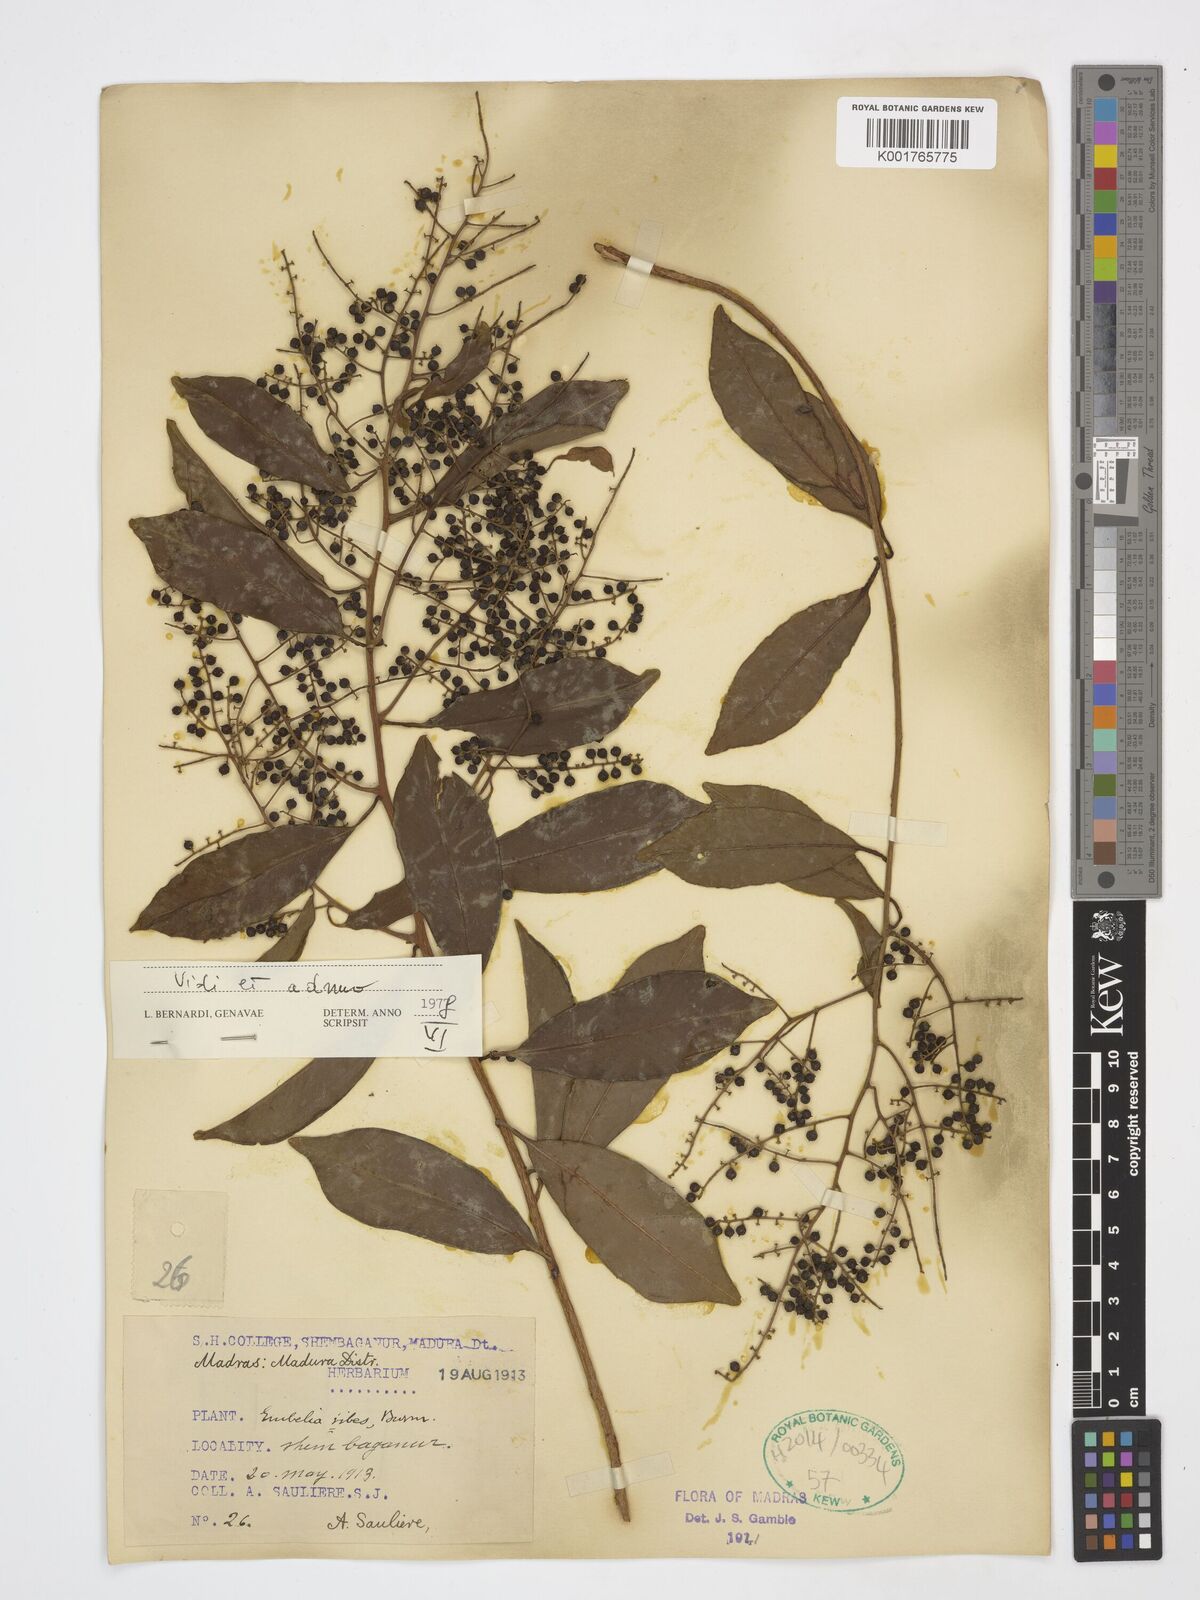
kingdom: Plantae
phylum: Tracheophyta
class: Magnoliopsida
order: Ericales
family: Primulaceae
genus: Embelia
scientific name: Embelia ribes
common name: Vidanga
